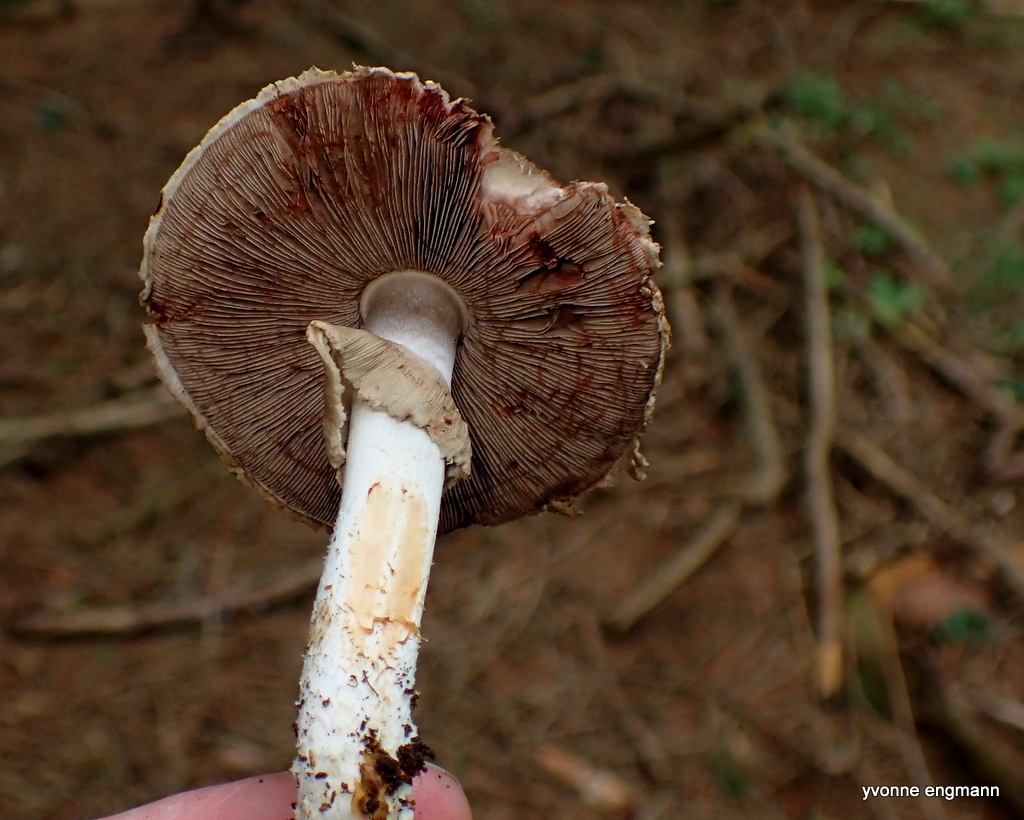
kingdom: Fungi
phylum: Basidiomycota
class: Agaricomycetes
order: Agaricales
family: Agaricaceae
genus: Agaricus
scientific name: Agaricus sylvaticus
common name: lille blod-champignon
